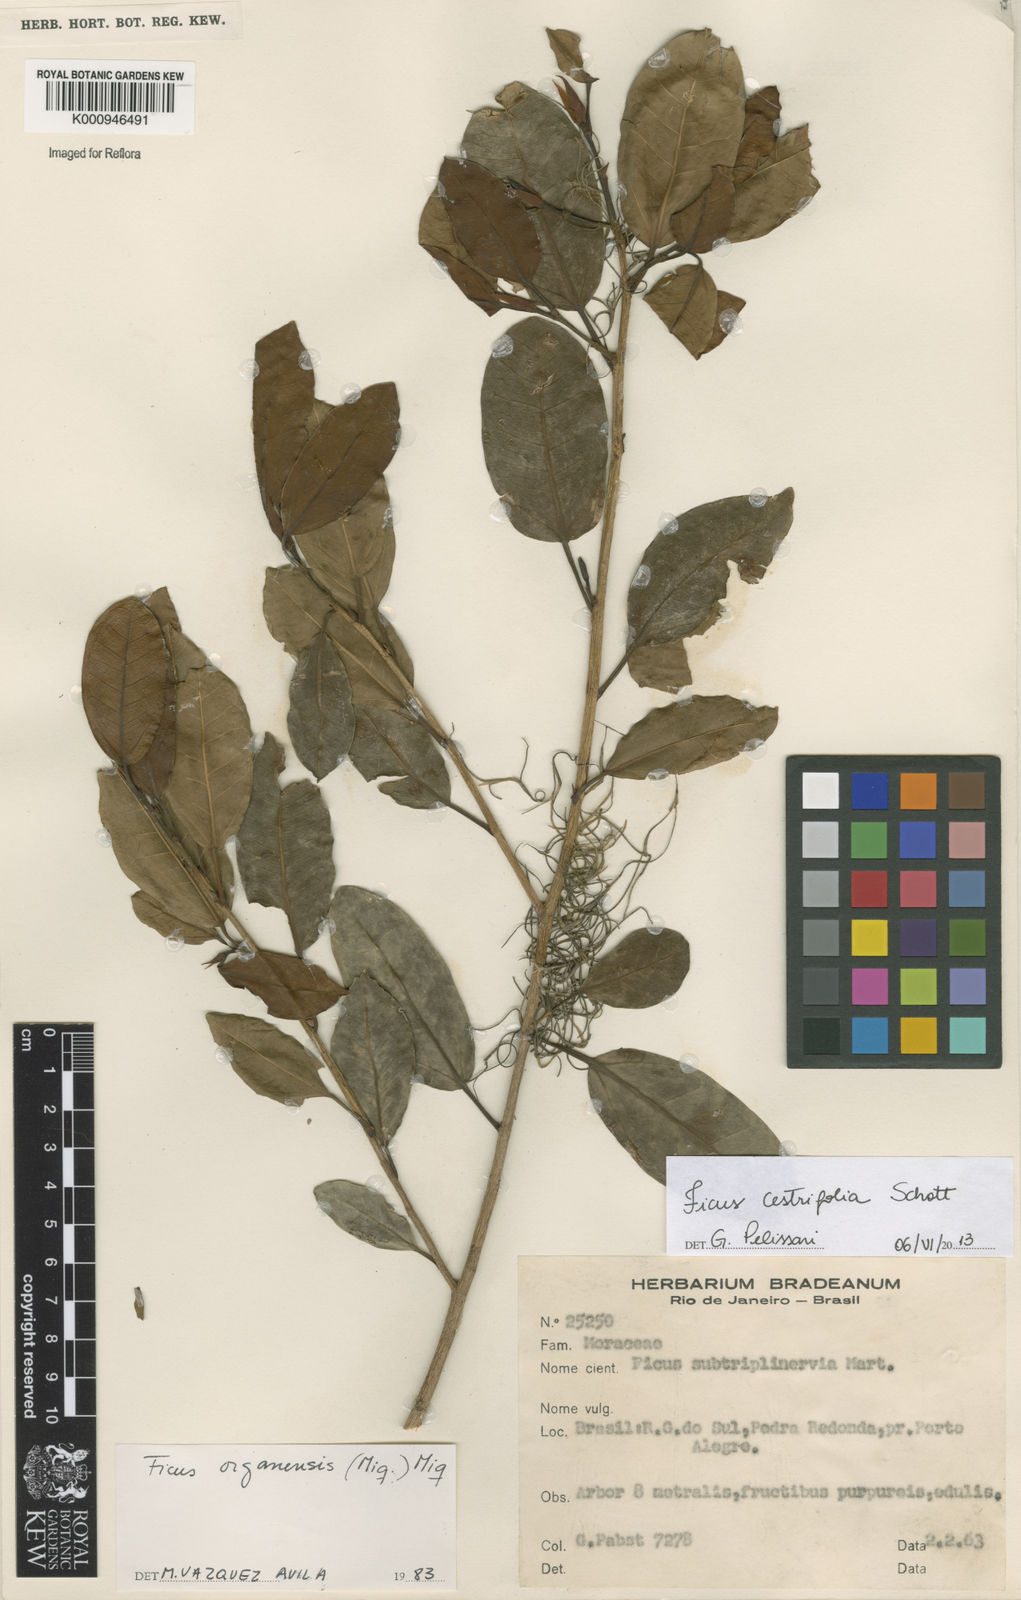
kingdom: Plantae
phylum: Tracheophyta
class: Magnoliopsida
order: Rosales
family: Moraceae
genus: Ficus
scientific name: Ficus
